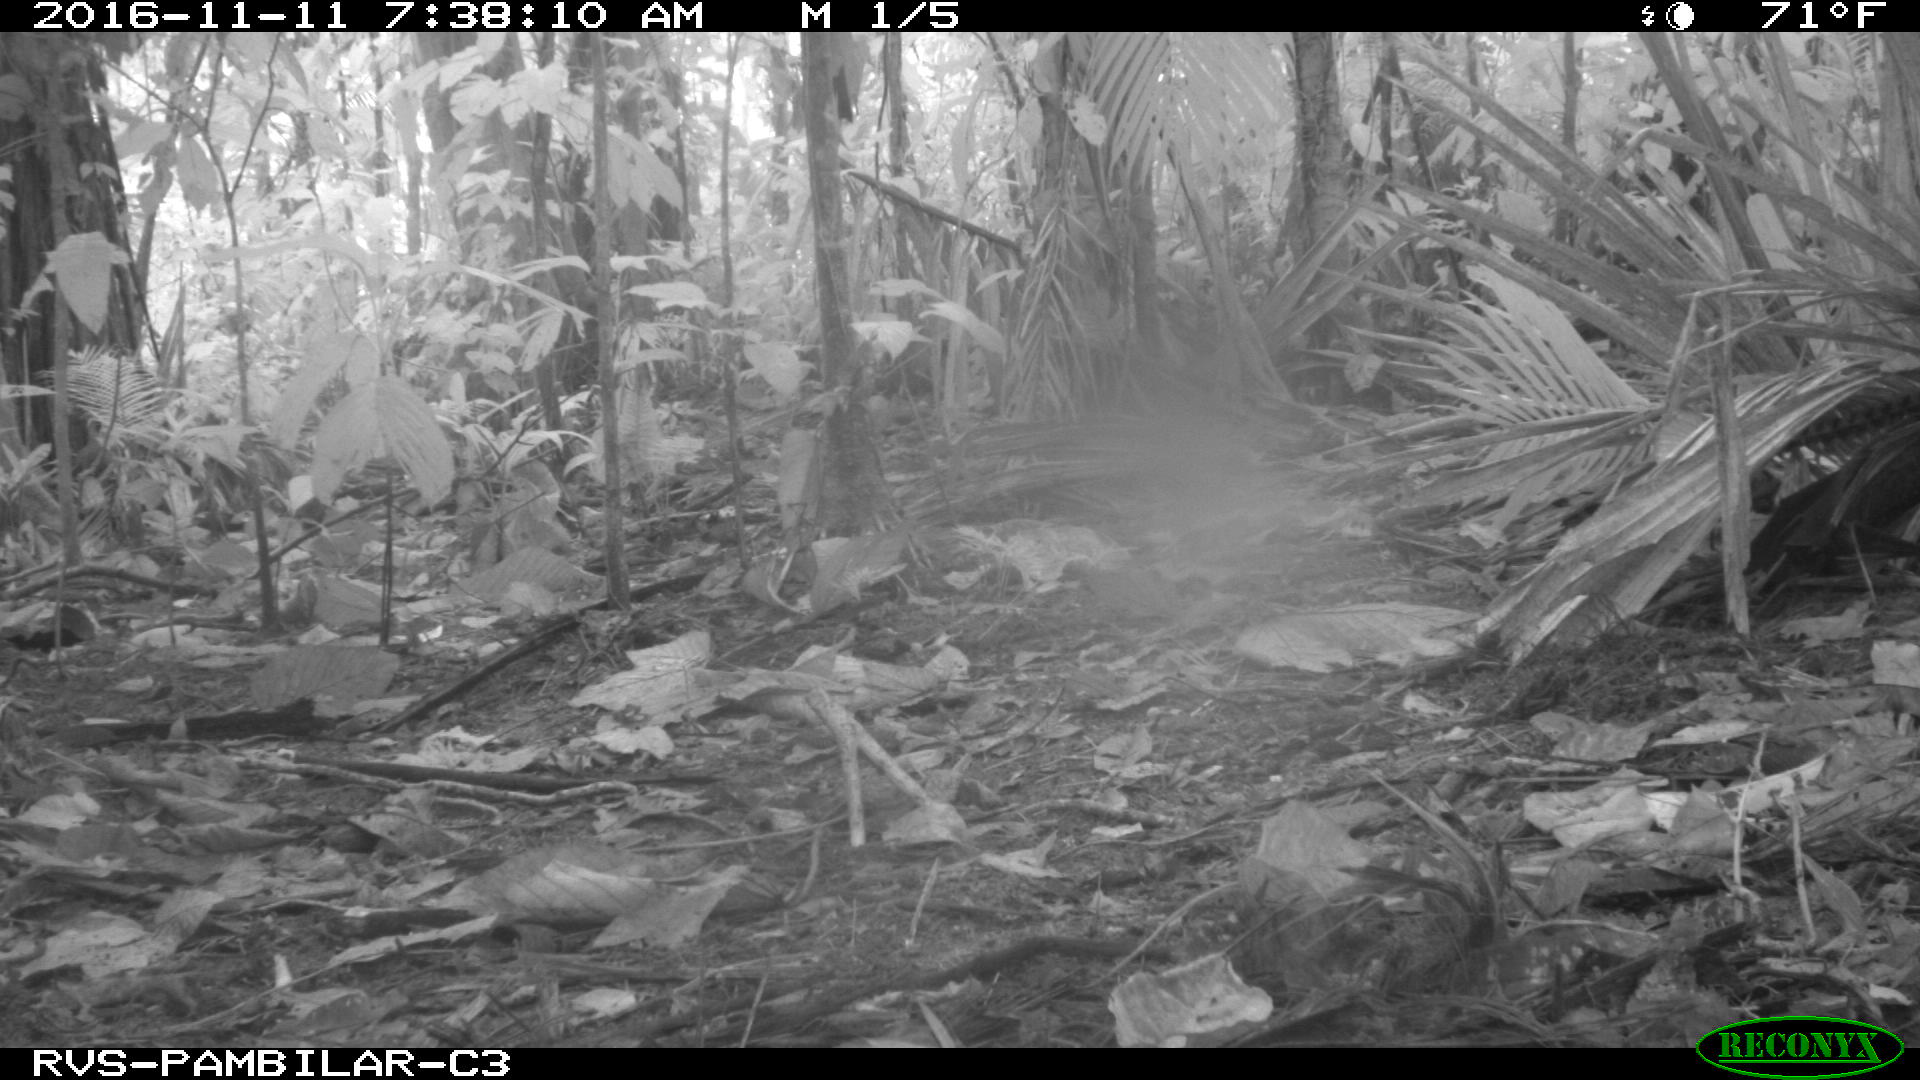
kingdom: Animalia
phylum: Chordata
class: Mammalia
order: Rodentia
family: Dasyproctidae
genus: Dasyprocta
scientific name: Dasyprocta punctata
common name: Central american agouti
